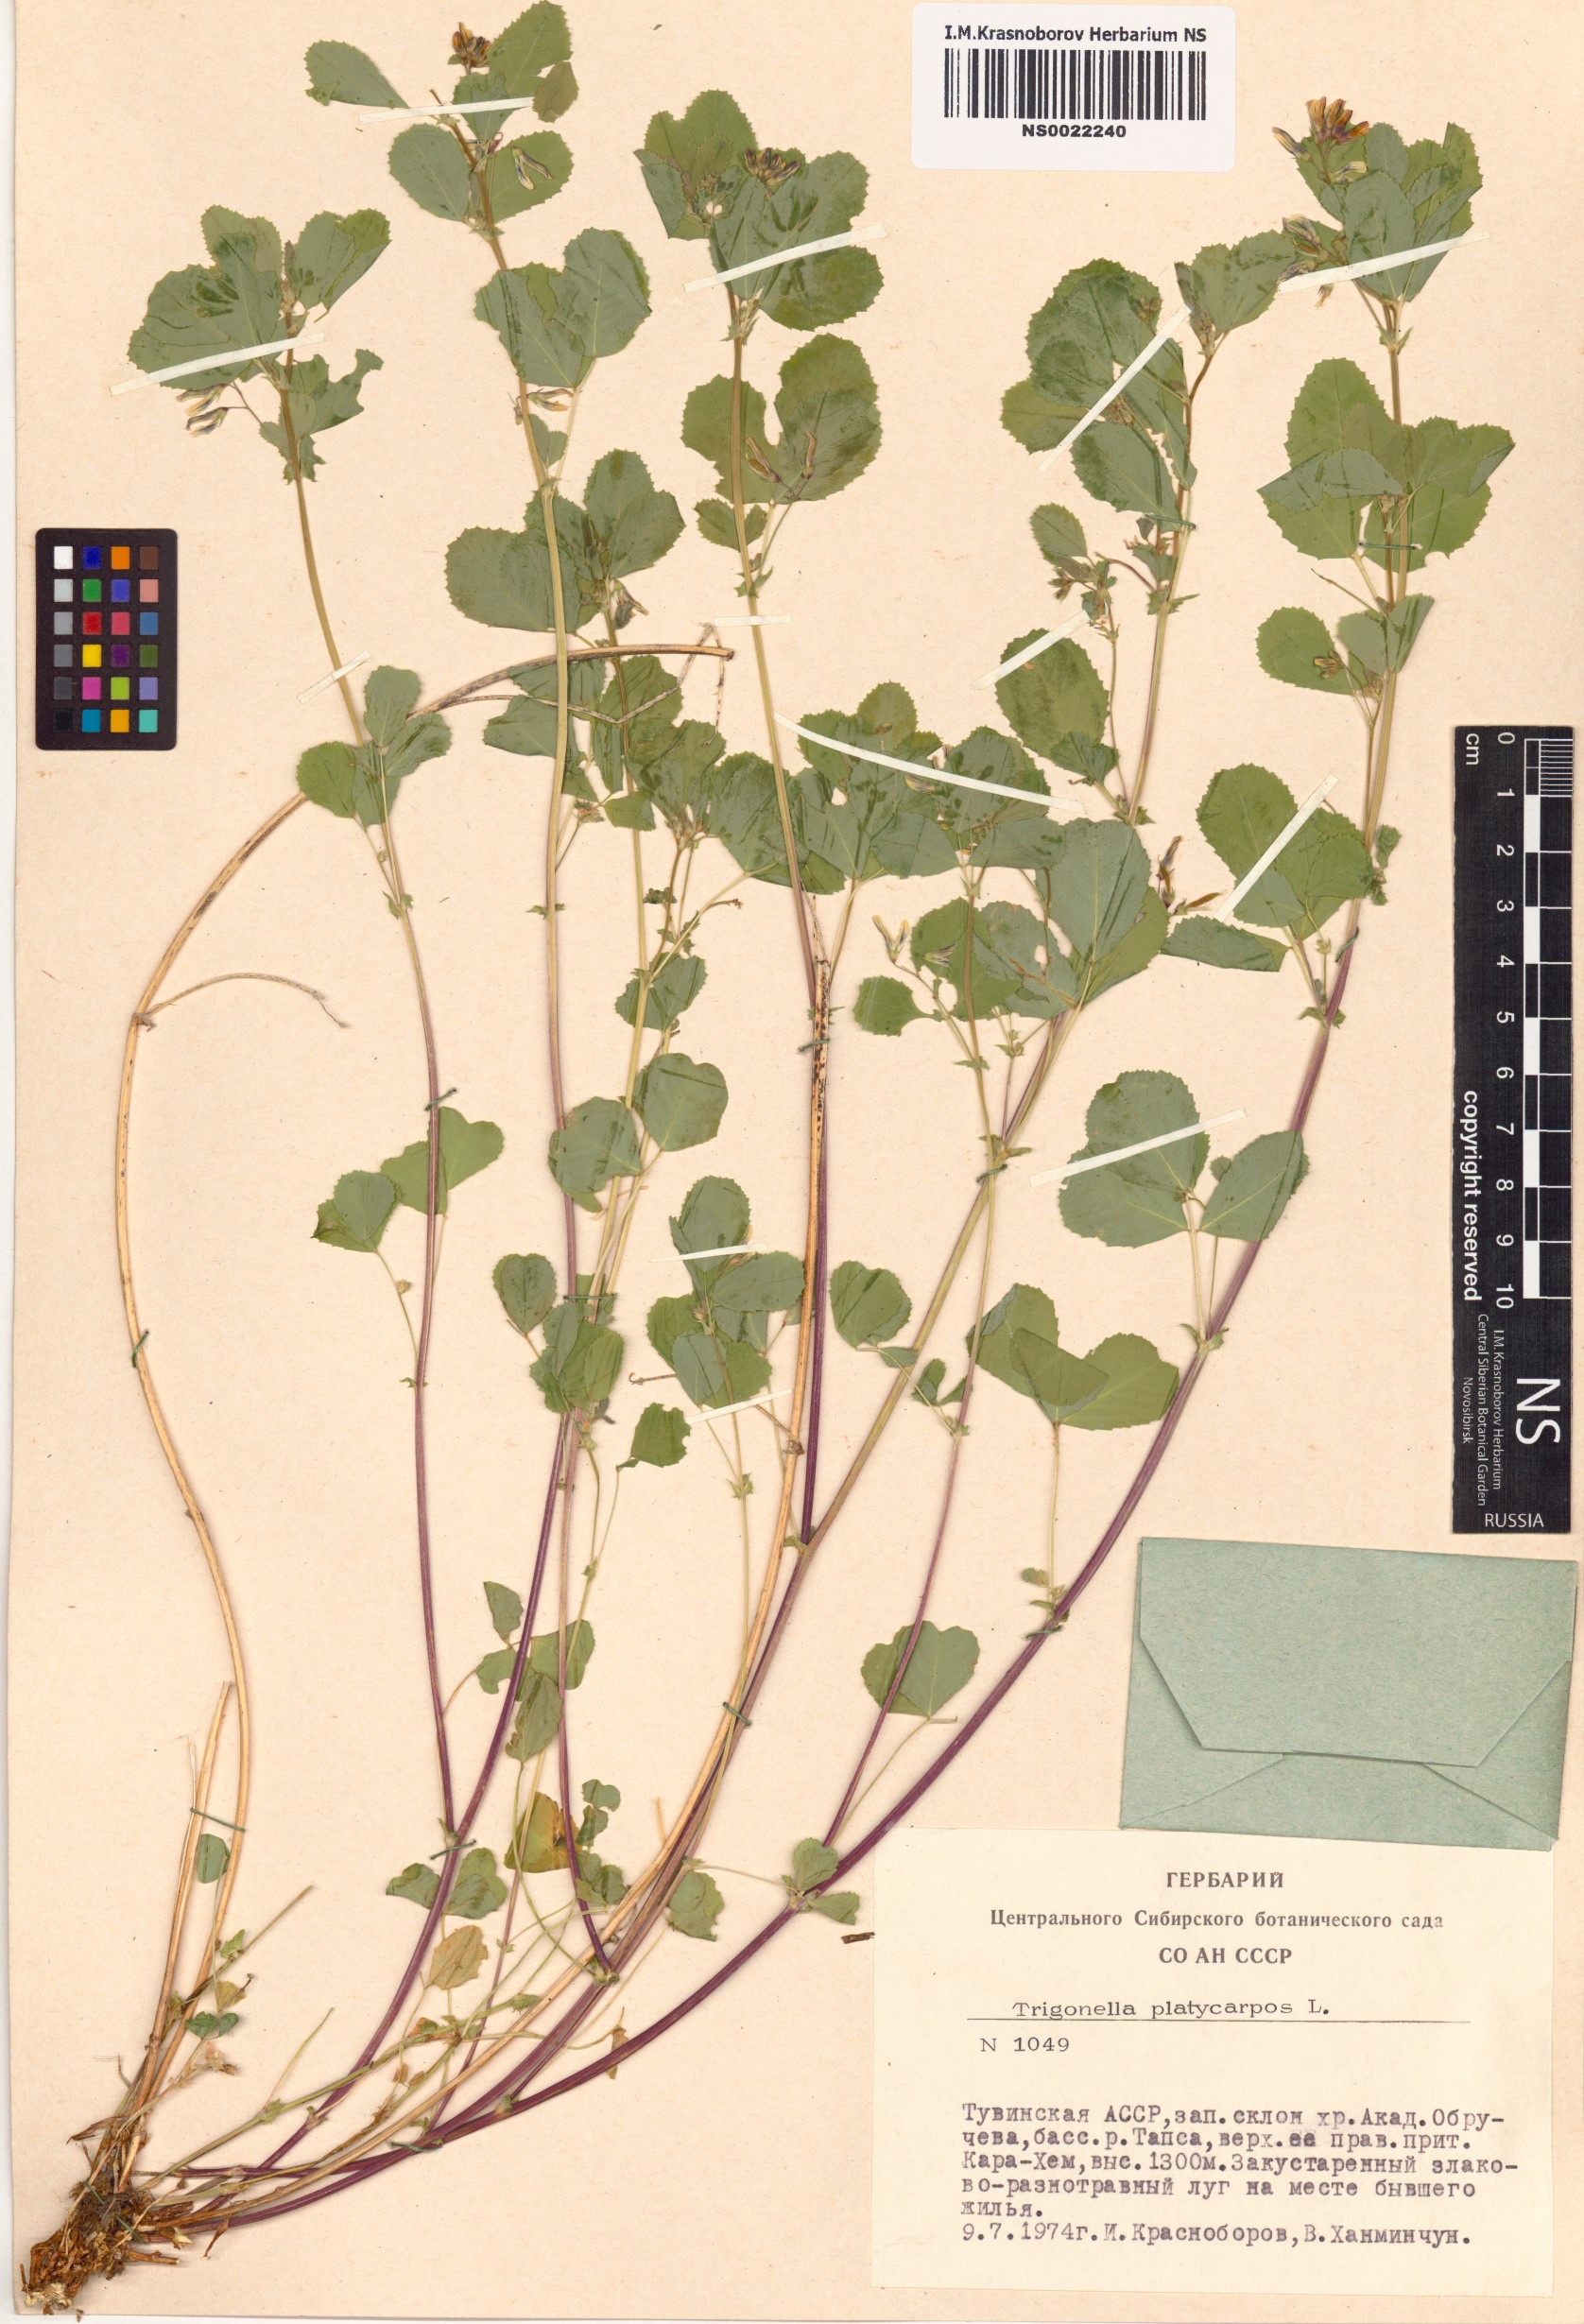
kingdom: Plantae
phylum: Tracheophyta
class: Magnoliopsida
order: Fabales
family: Fabaceae
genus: Medicago
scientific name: Medicago platycarpos
